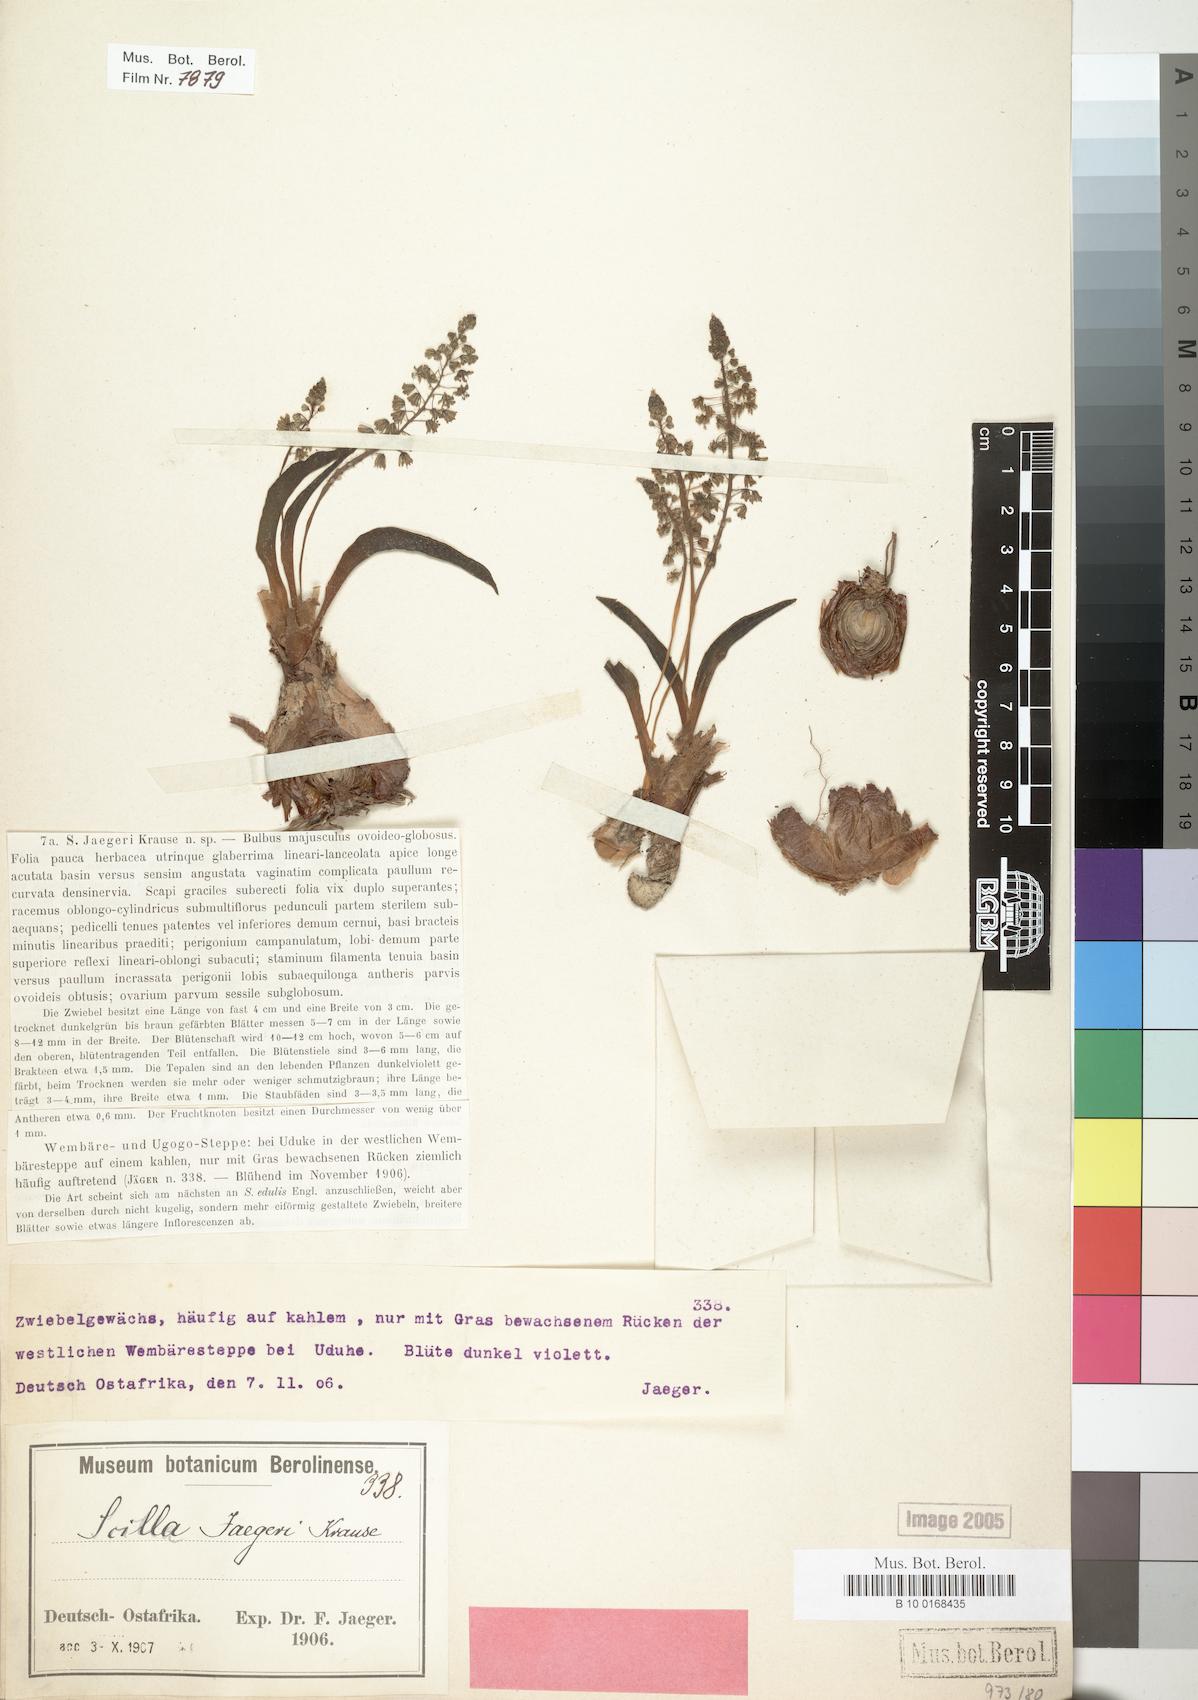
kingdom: Plantae
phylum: Tracheophyta
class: Liliopsida
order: Asparagales
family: Asparagaceae
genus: Scilla
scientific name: Scilla jaegeri
